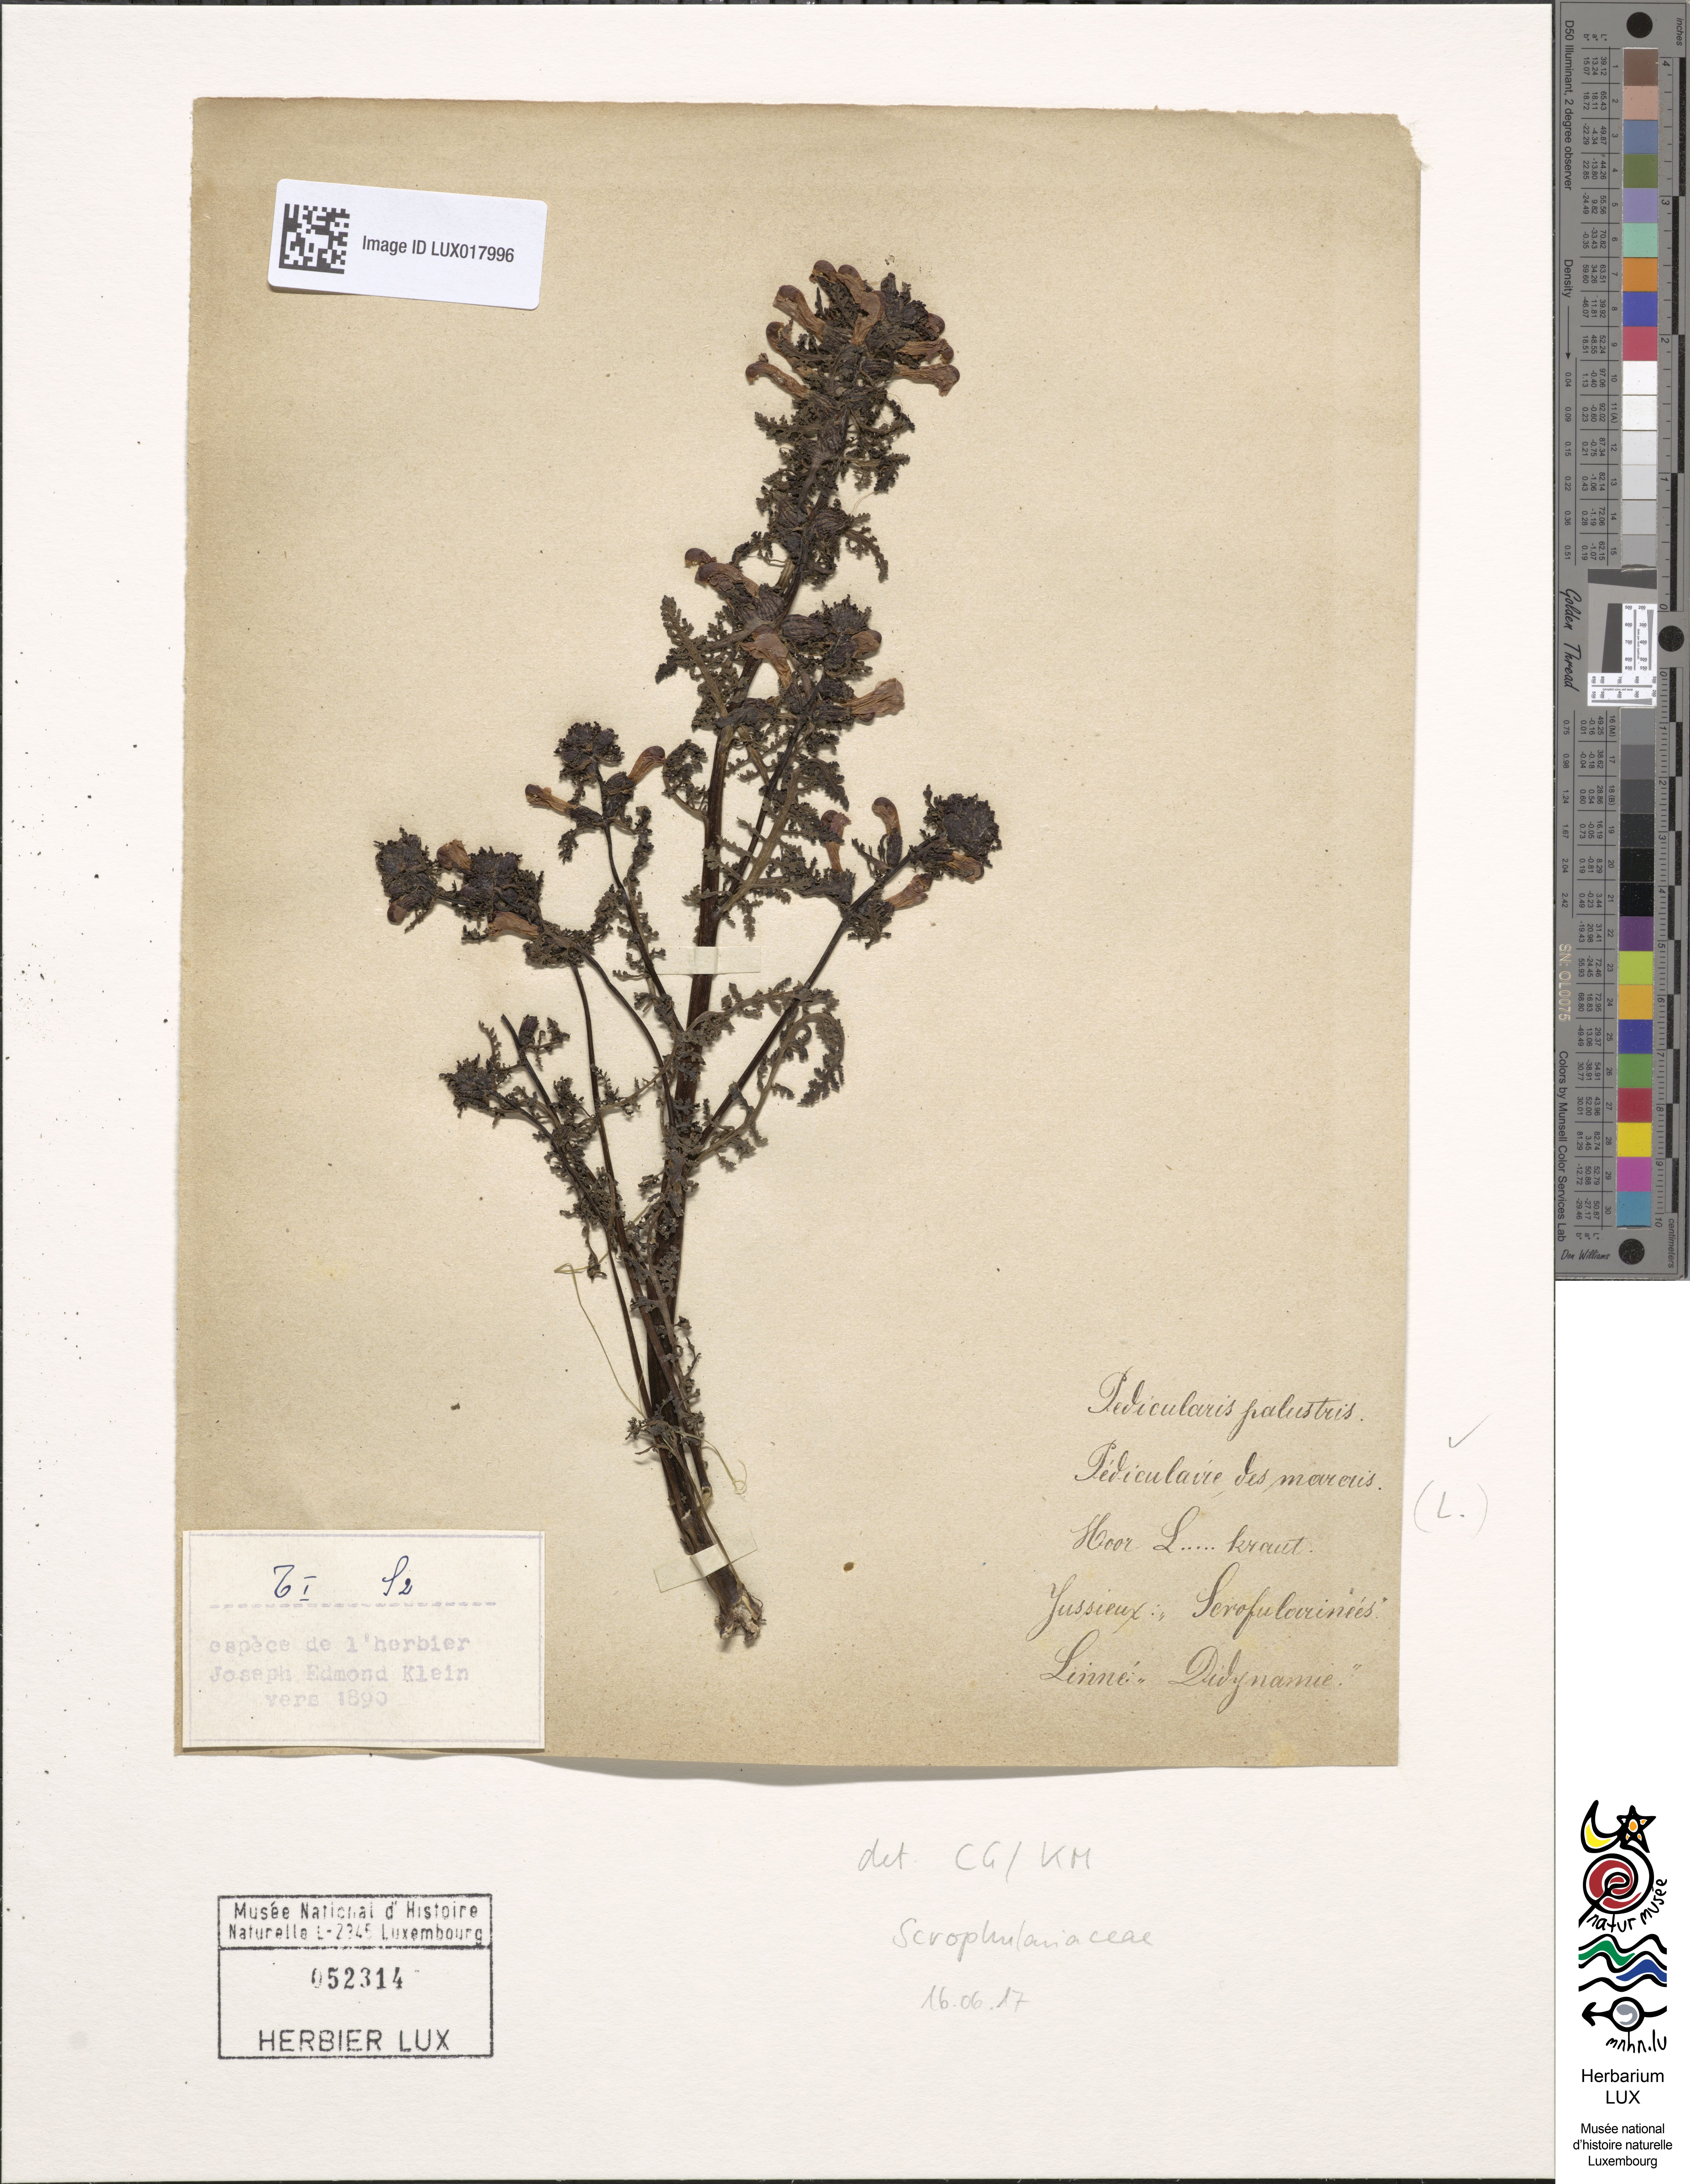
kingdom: Plantae
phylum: Tracheophyta
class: Magnoliopsida
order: Lamiales
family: Orobanchaceae
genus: Pedicularis
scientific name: Pedicularis palustris
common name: Marsh lousewort
